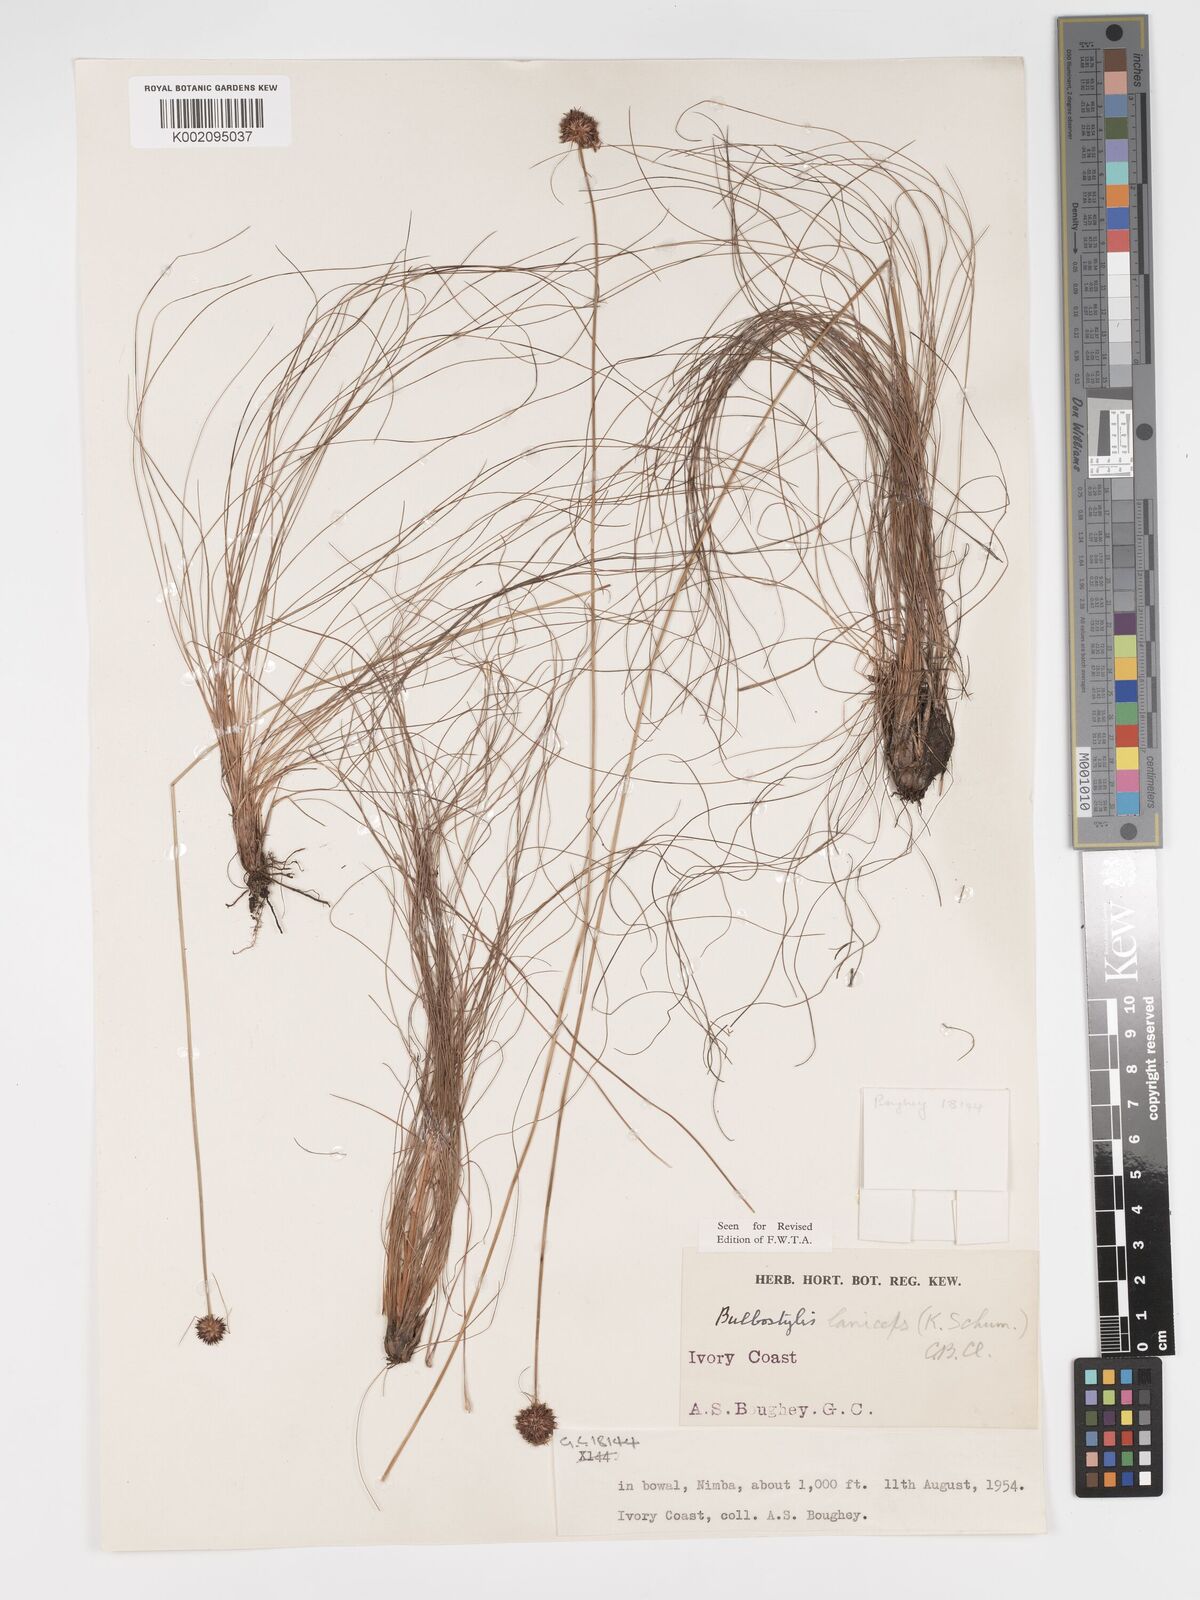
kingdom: Plantae
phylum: Tracheophyta
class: Liliopsida
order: Poales
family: Cyperaceae
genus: Bulbostylis
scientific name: Bulbostylis laniceps
